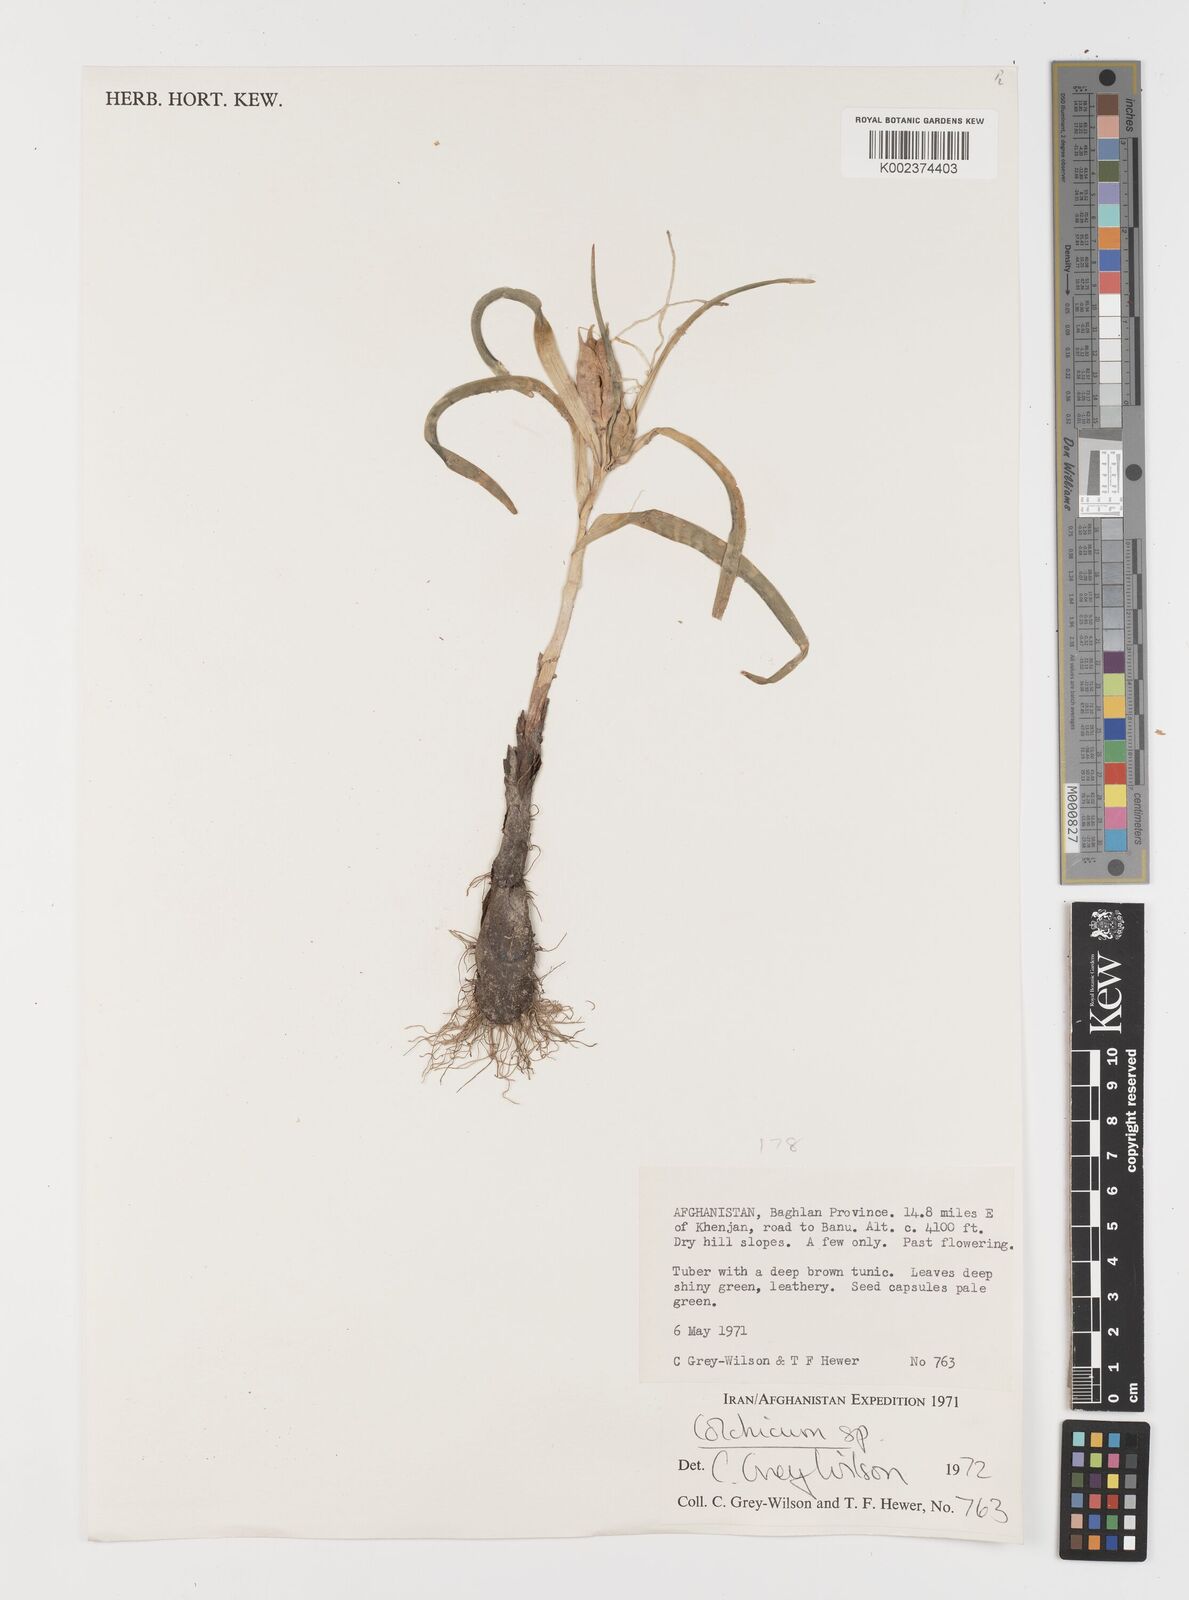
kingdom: Plantae
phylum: Tracheophyta
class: Liliopsida
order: Liliales
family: Colchicaceae
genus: Colchicum
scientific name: Colchicum
